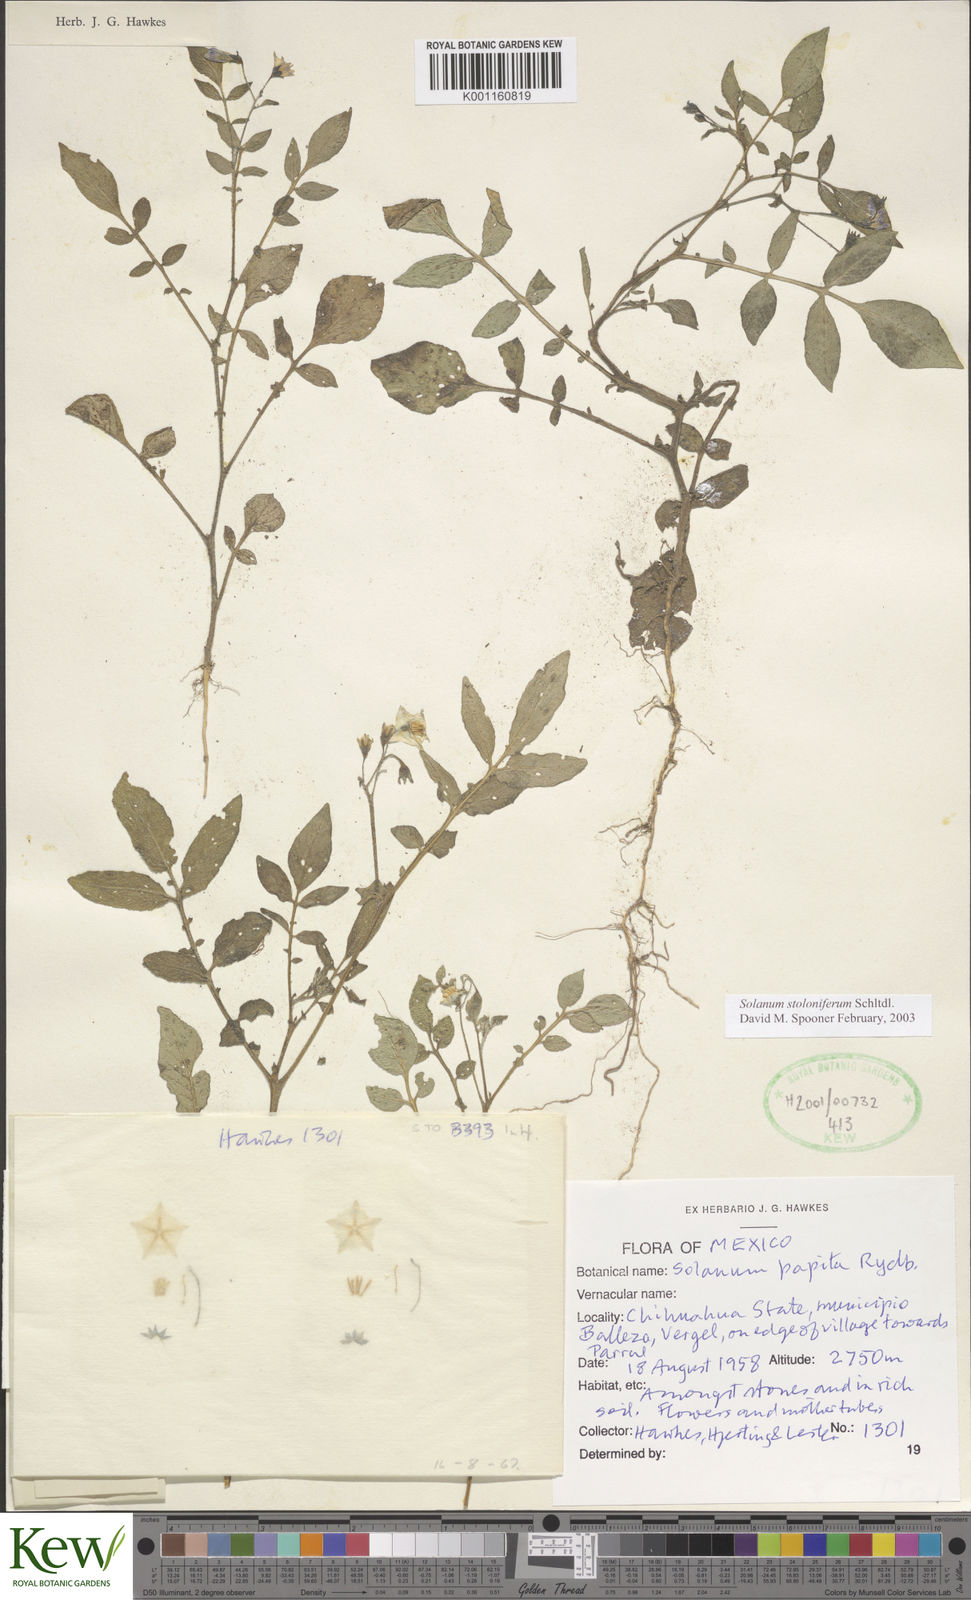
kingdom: Plantae
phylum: Tracheophyta
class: Magnoliopsida
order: Solanales
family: Solanaceae
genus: Solanum
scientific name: Solanum stoloniferum
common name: Fendler's nighshade
